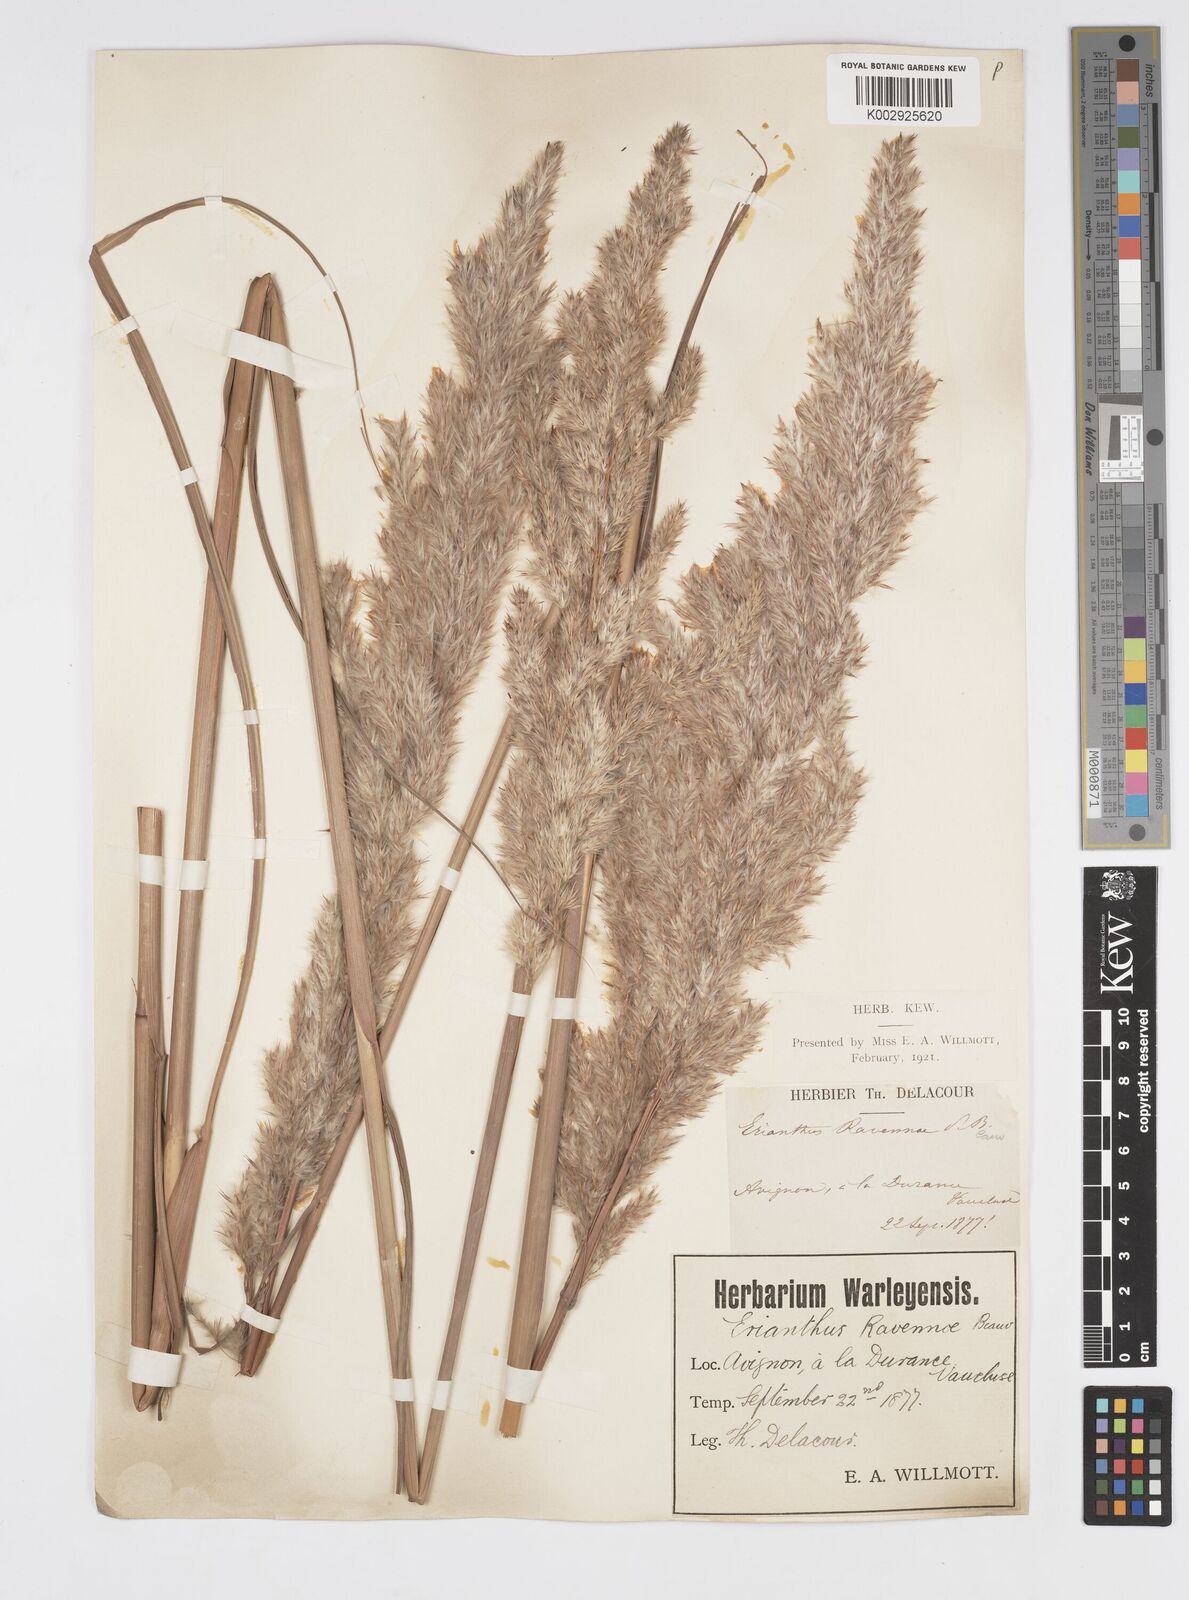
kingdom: Plantae
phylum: Tracheophyta
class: Liliopsida
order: Poales
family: Poaceae
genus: Tripidium
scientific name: Tripidium ravennae
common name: Ravenna grass
